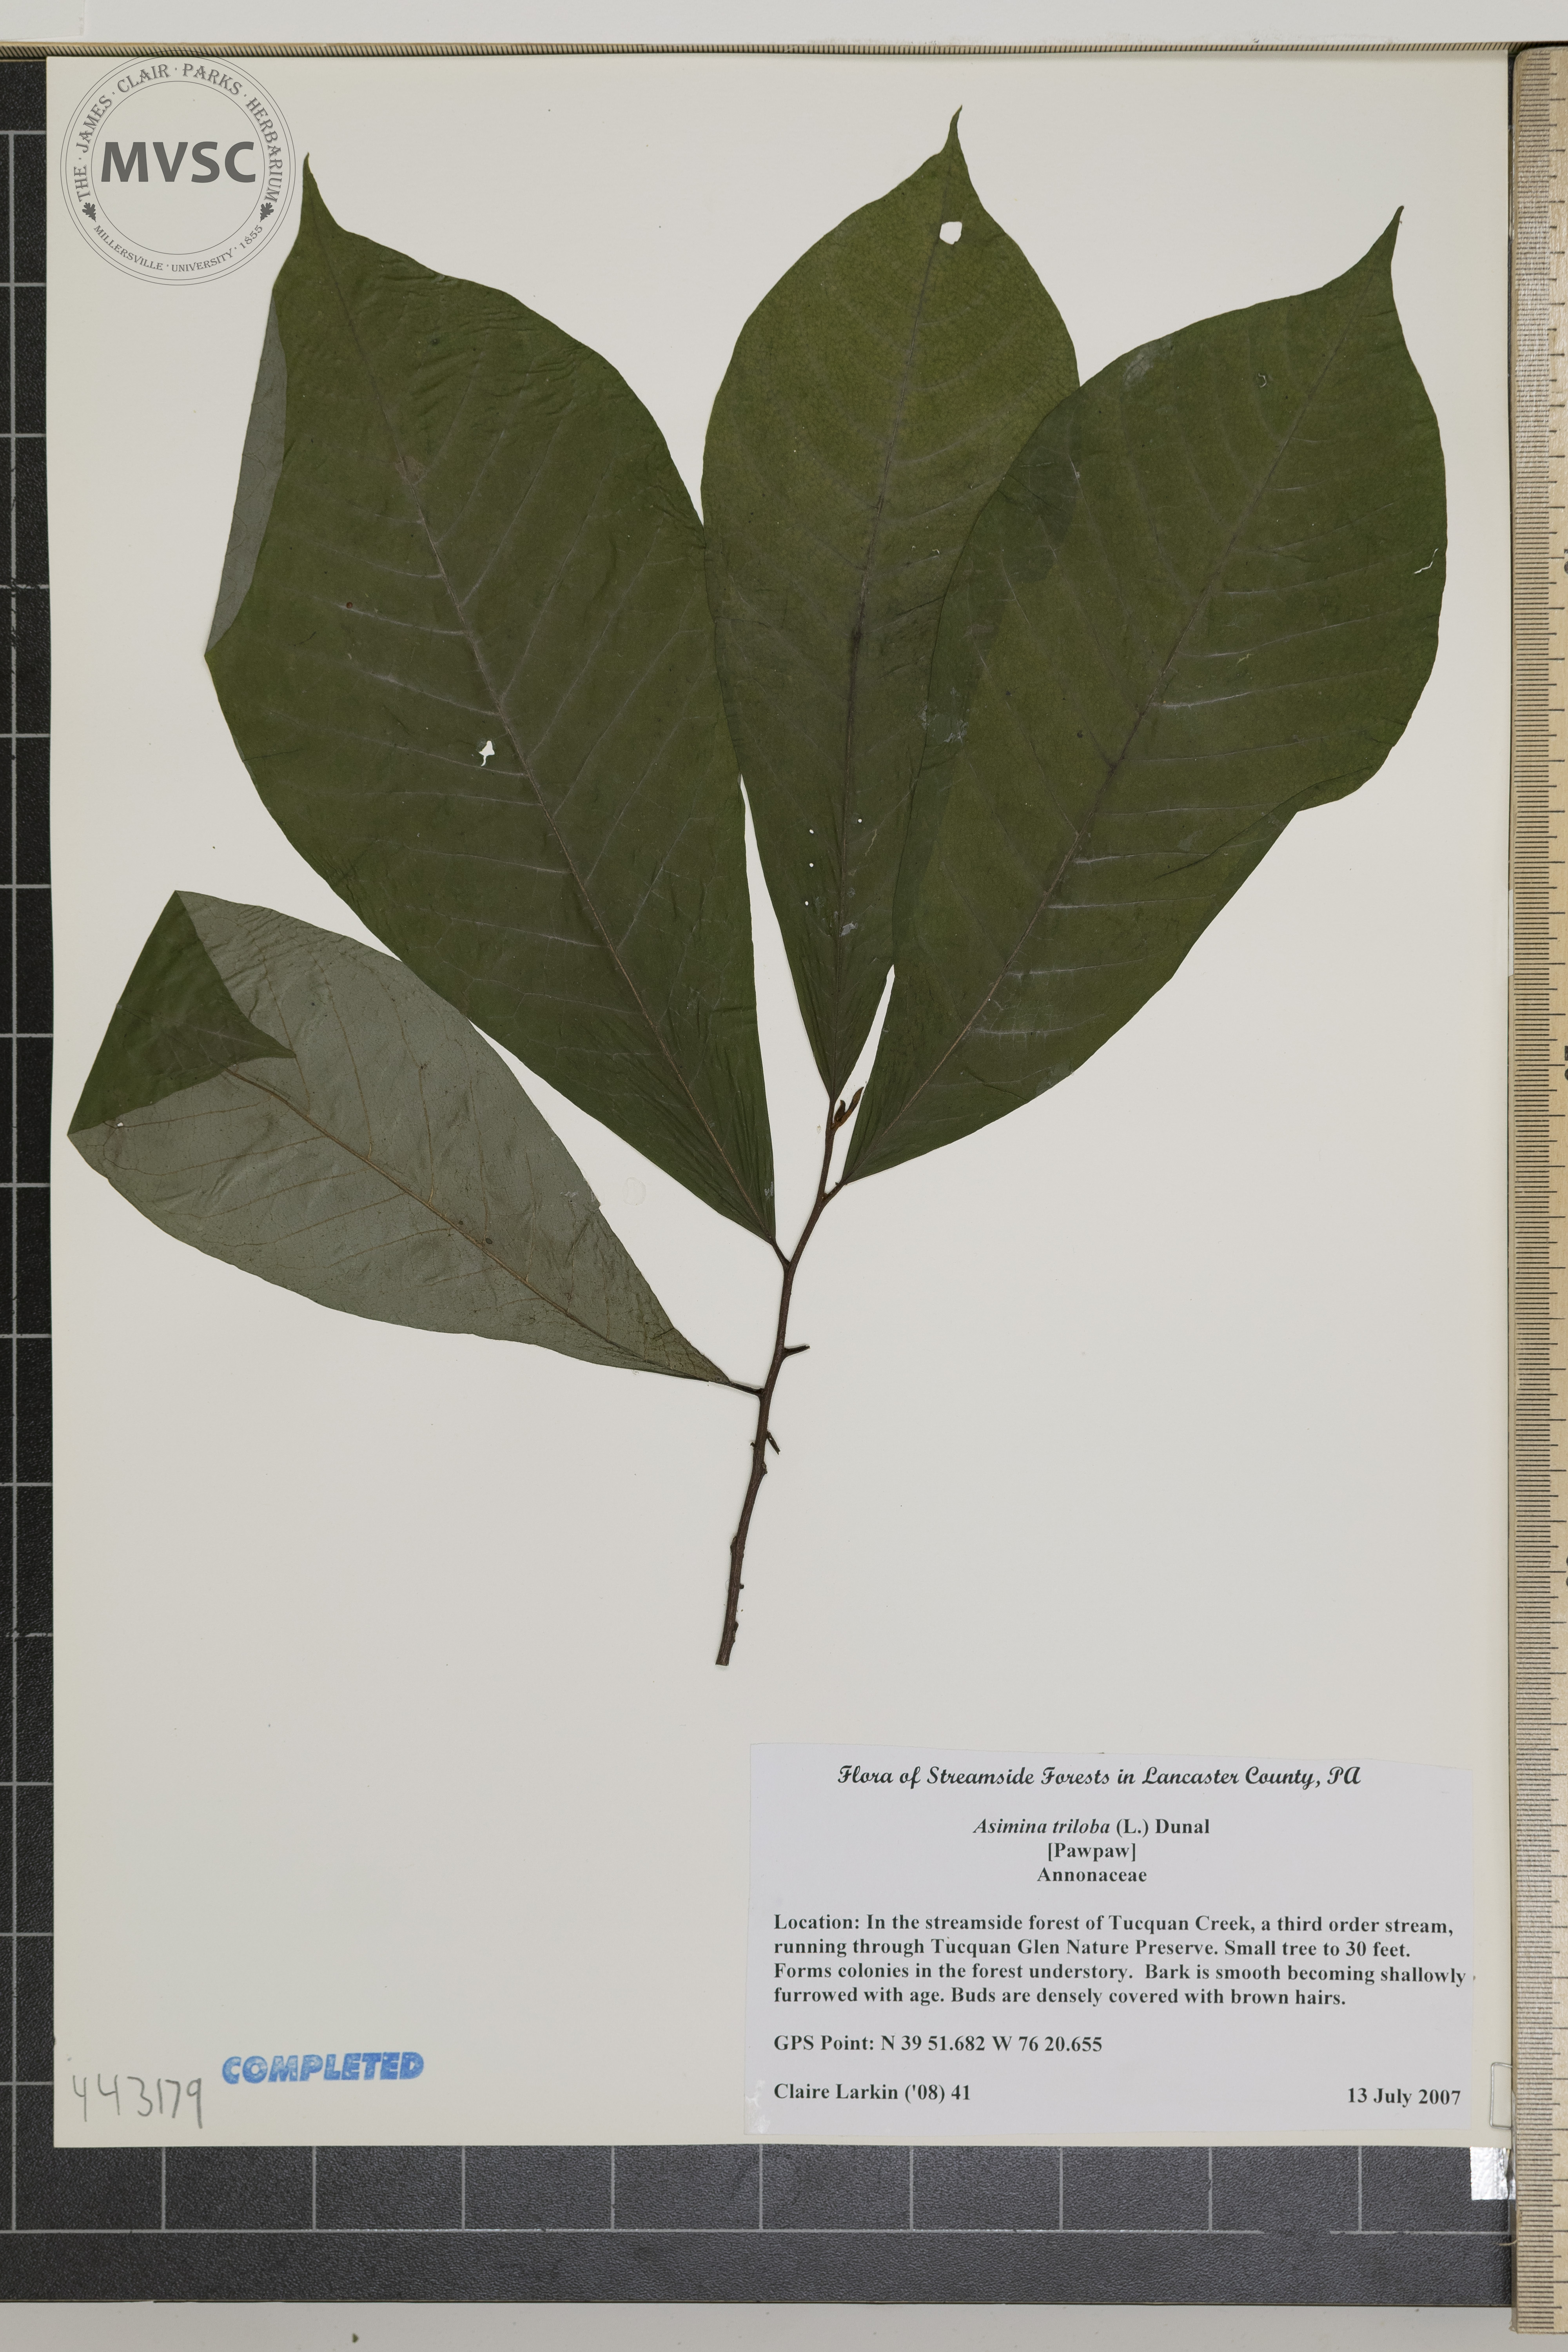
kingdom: Plantae
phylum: Tracheophyta
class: Magnoliopsida
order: Magnoliales
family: Annonaceae
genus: Asimina
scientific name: Asimina triloba
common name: pawpaw
